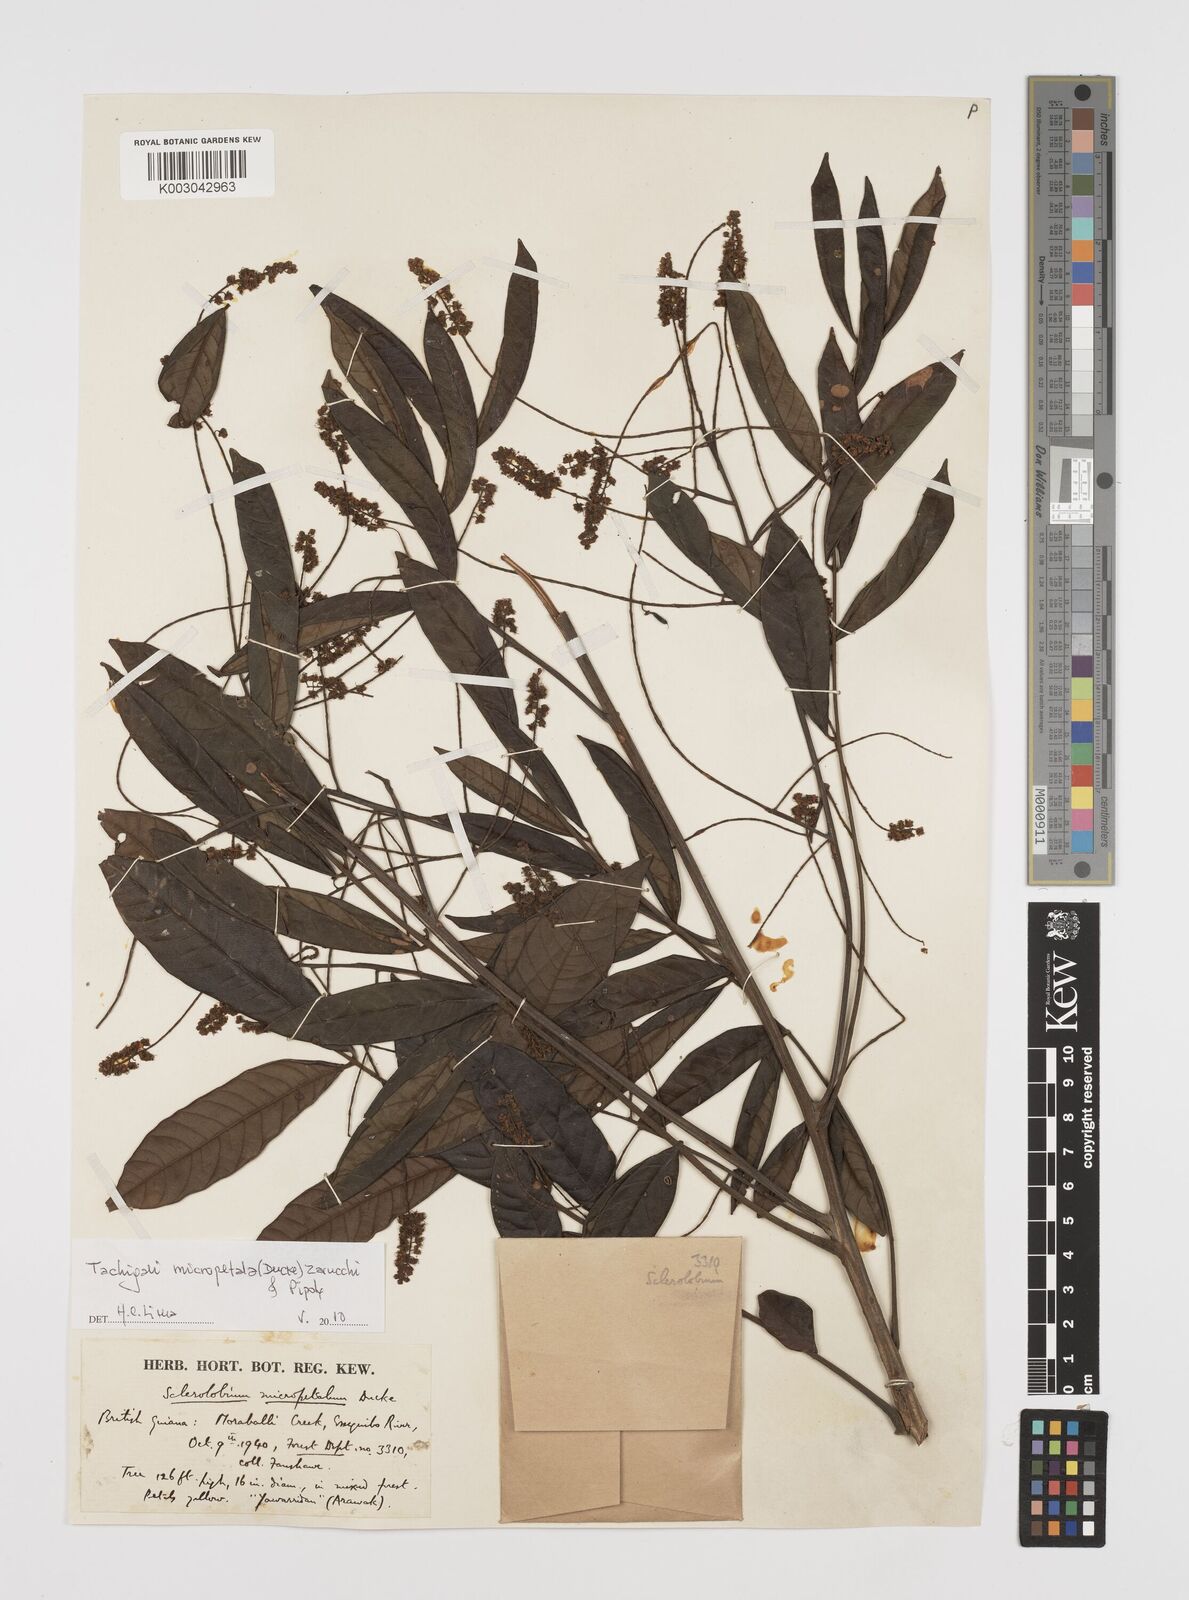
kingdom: Plantae
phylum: Tracheophyta
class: Magnoliopsida
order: Fabales
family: Fabaceae
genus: Tachigali
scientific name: Tachigali micropetala
